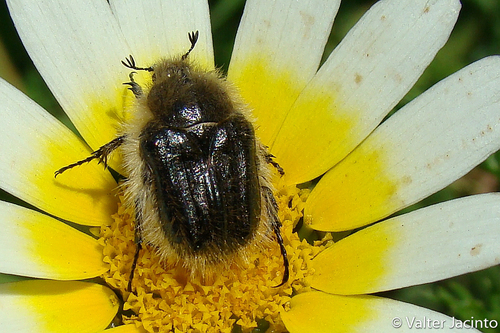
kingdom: Animalia
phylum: Arthropoda
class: Insecta
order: Coleoptera
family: Scarabaeidae
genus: Tropinota
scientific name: Tropinota squalida
